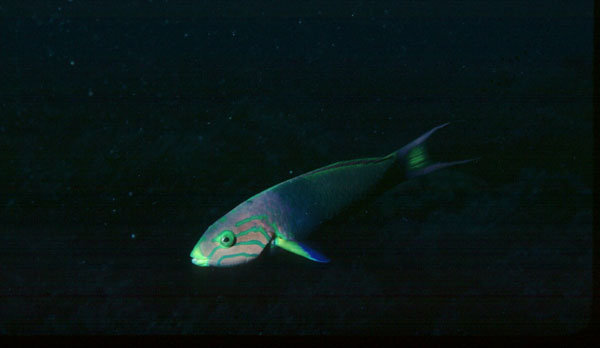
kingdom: Animalia
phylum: Chordata
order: Perciformes
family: Labridae
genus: Thalassoma
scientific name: Thalassoma lutescens
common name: Green moon wrasse
